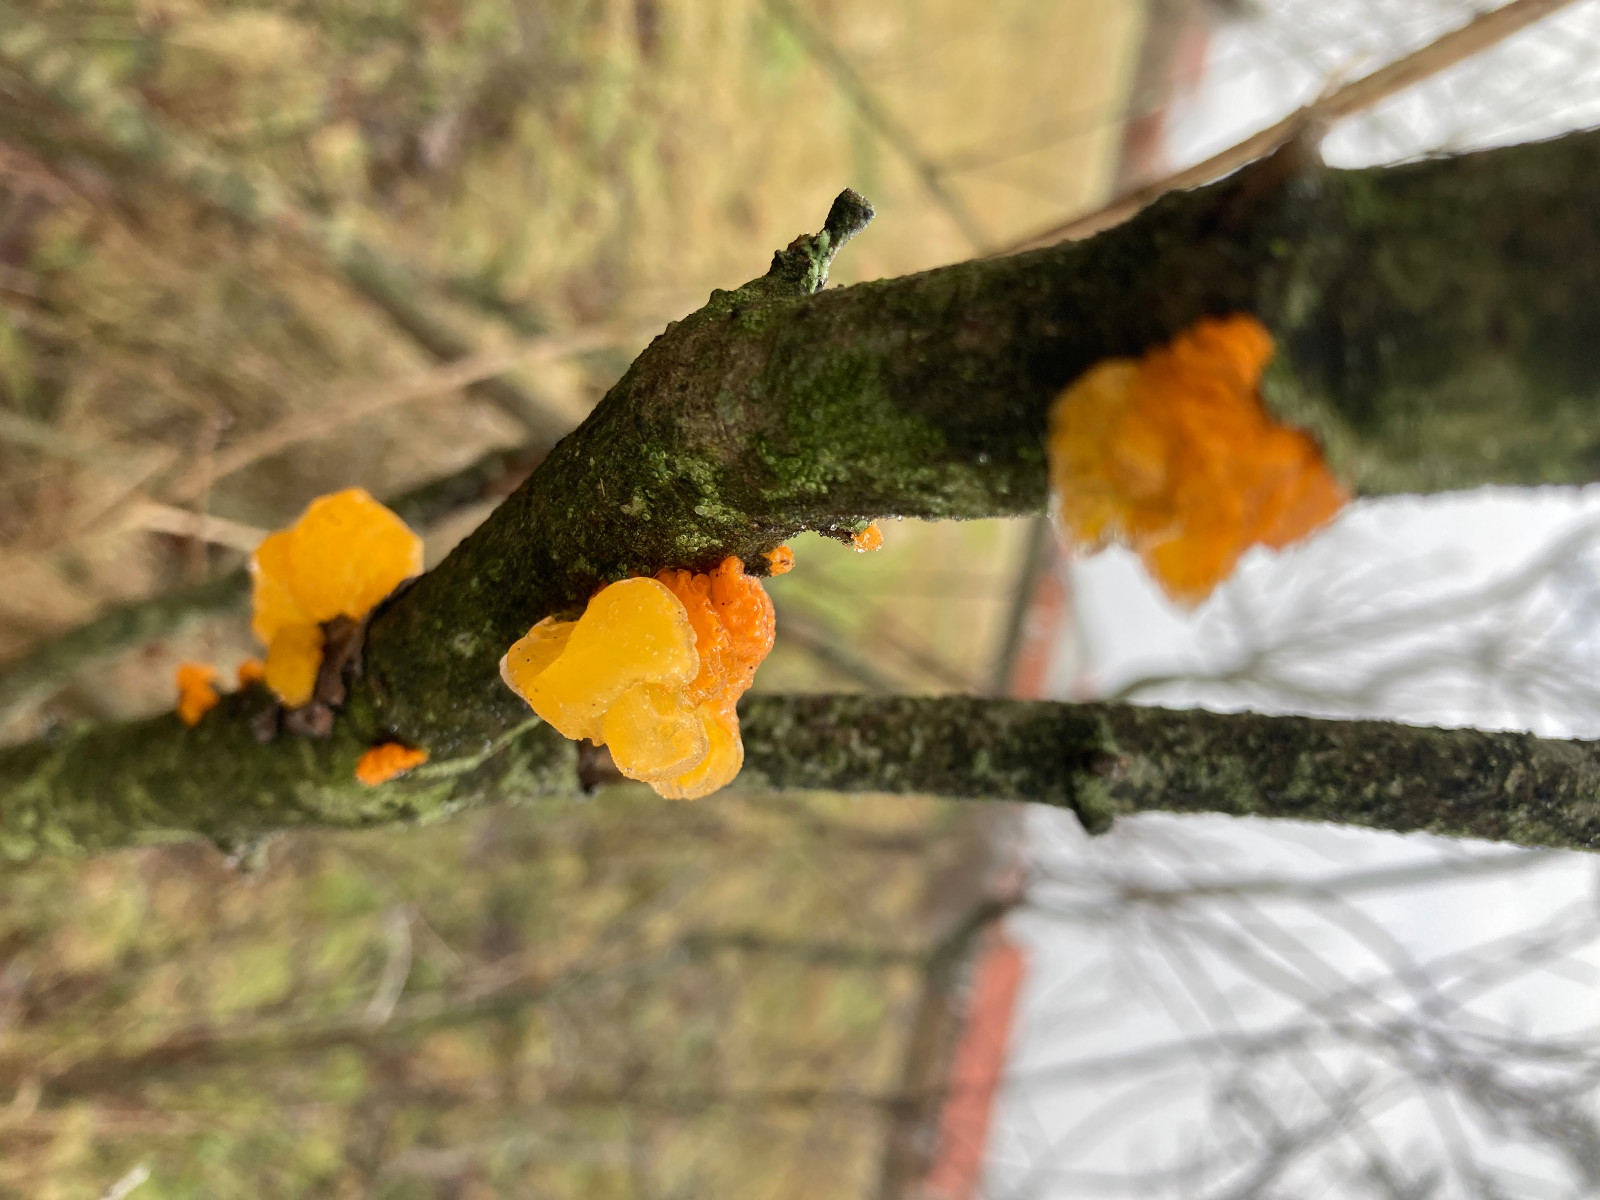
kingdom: Fungi
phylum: Basidiomycota
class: Tremellomycetes
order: Tremellales
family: Tremellaceae
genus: Tremella
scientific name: Tremella mesenterica
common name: gul bævresvamp
